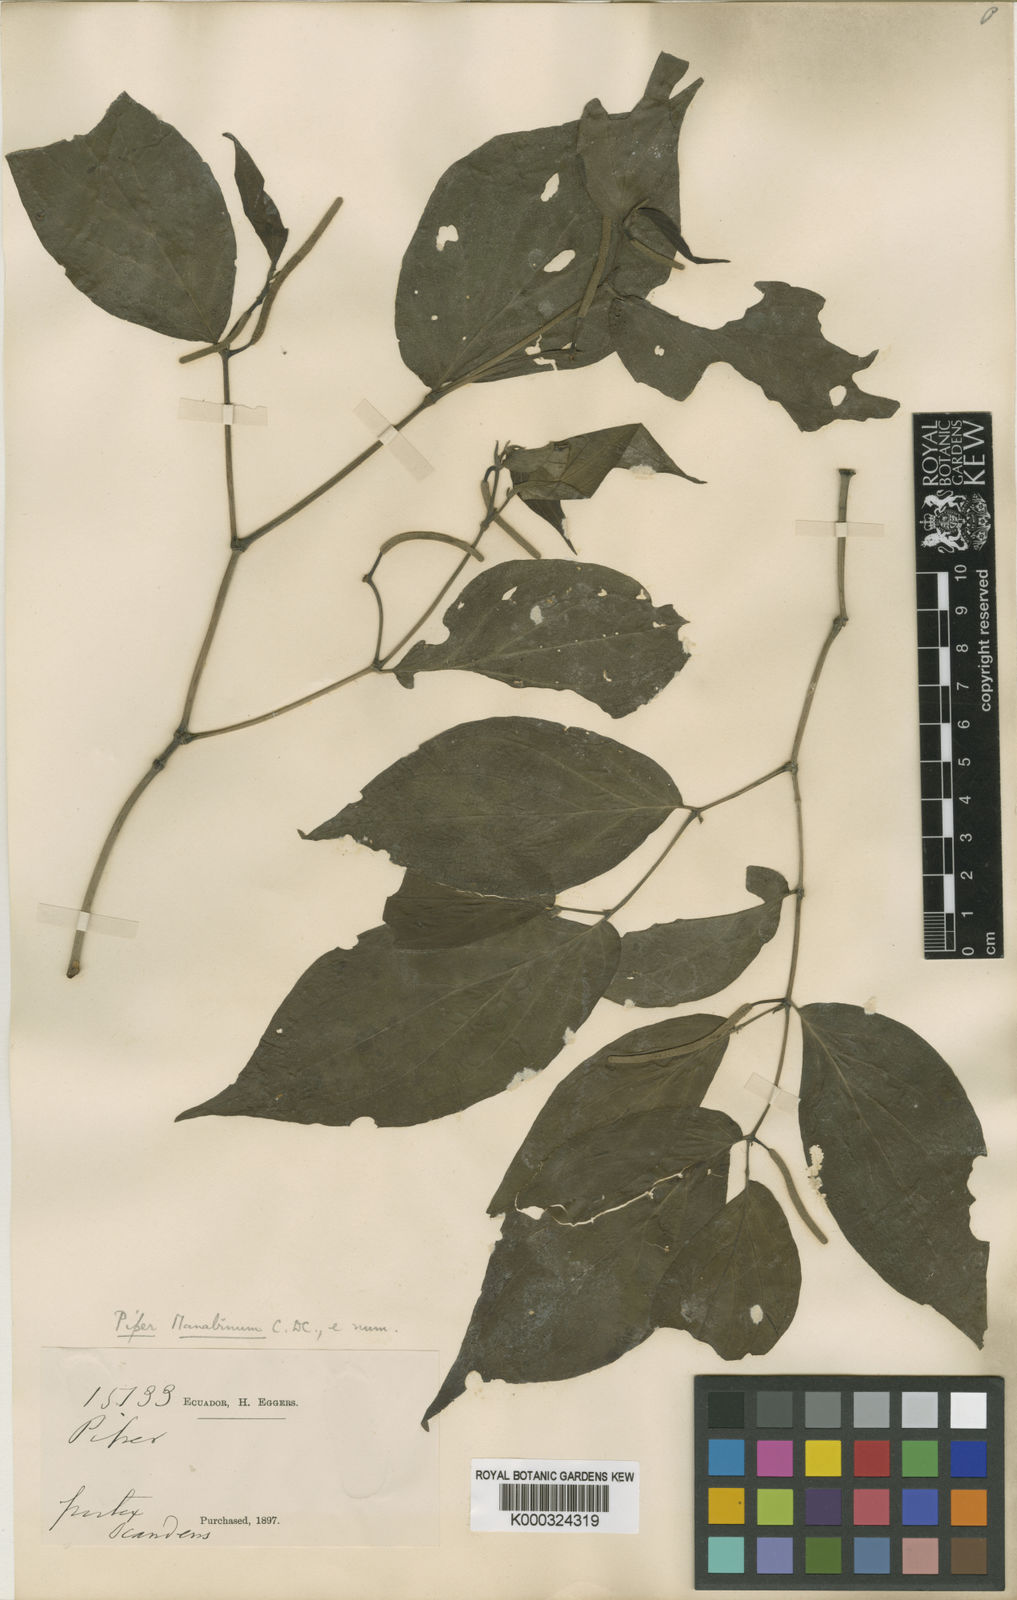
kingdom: Plantae
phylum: Tracheophyta
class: Magnoliopsida
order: Piperales
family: Piperaceae
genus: Piper
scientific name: Piper manabinum
